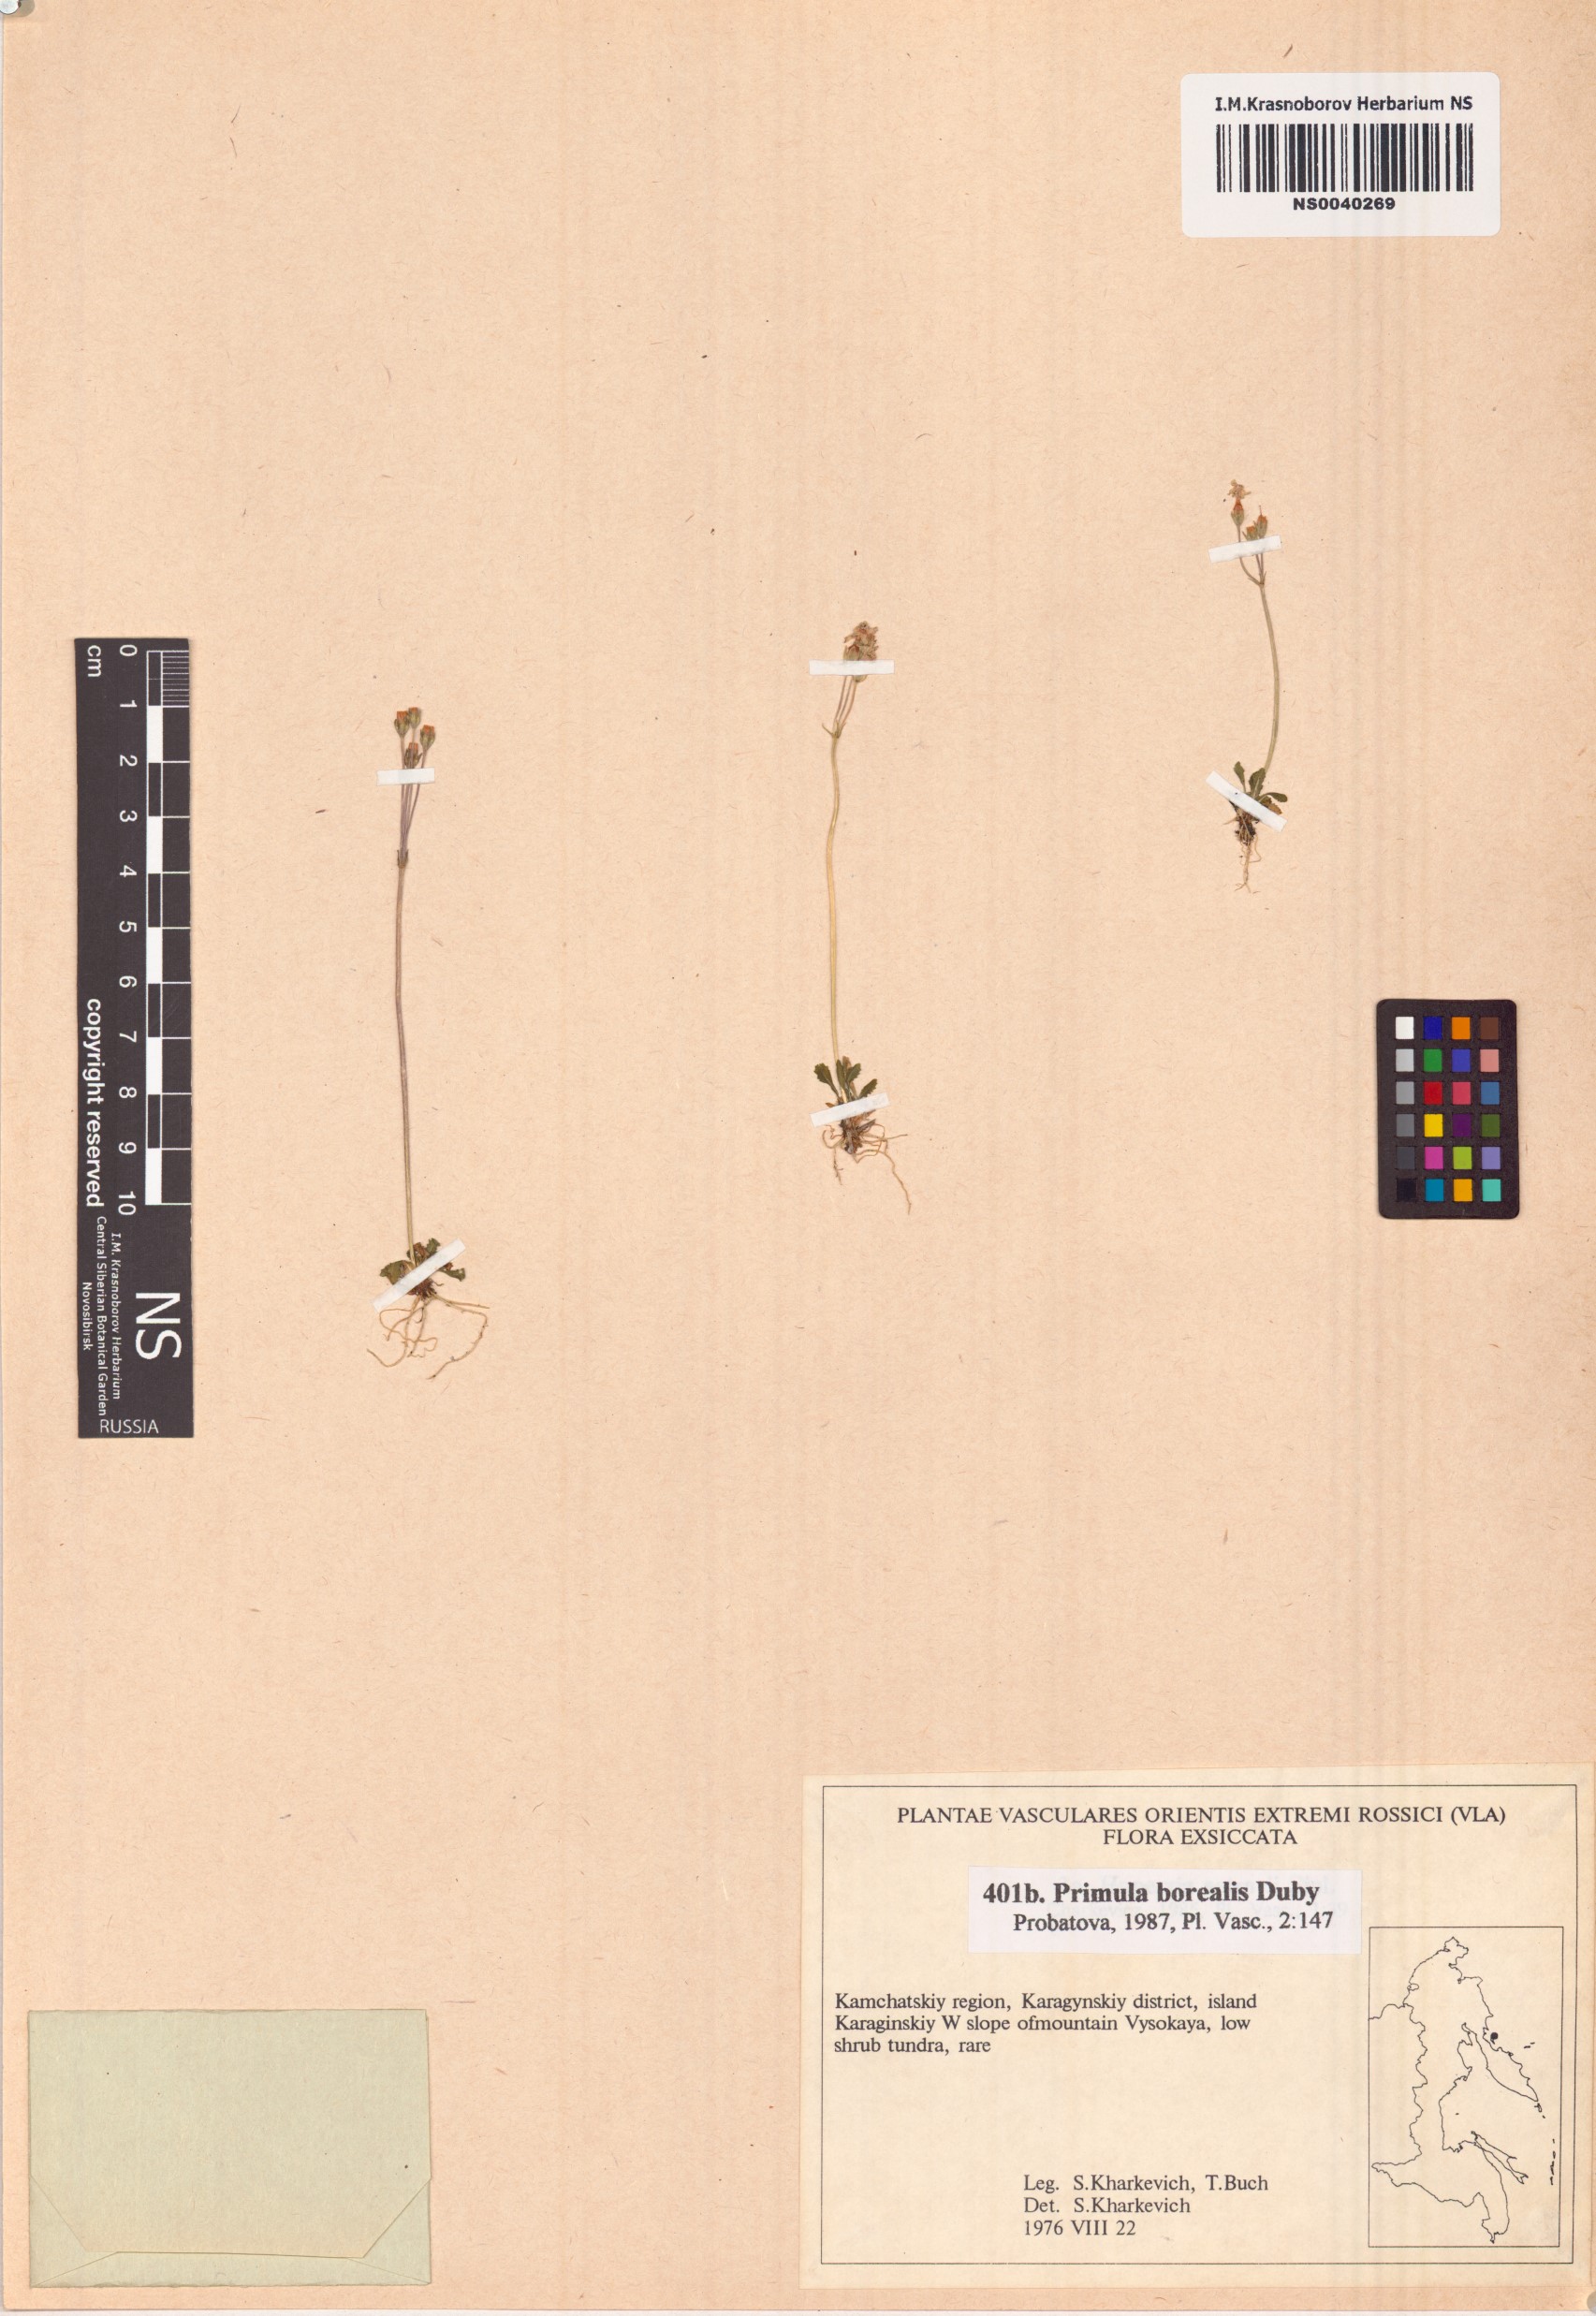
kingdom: Plantae
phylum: Tracheophyta
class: Magnoliopsida
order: Ericales
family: Primulaceae
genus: Primula
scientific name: Primula borealis
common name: Northern primrose
